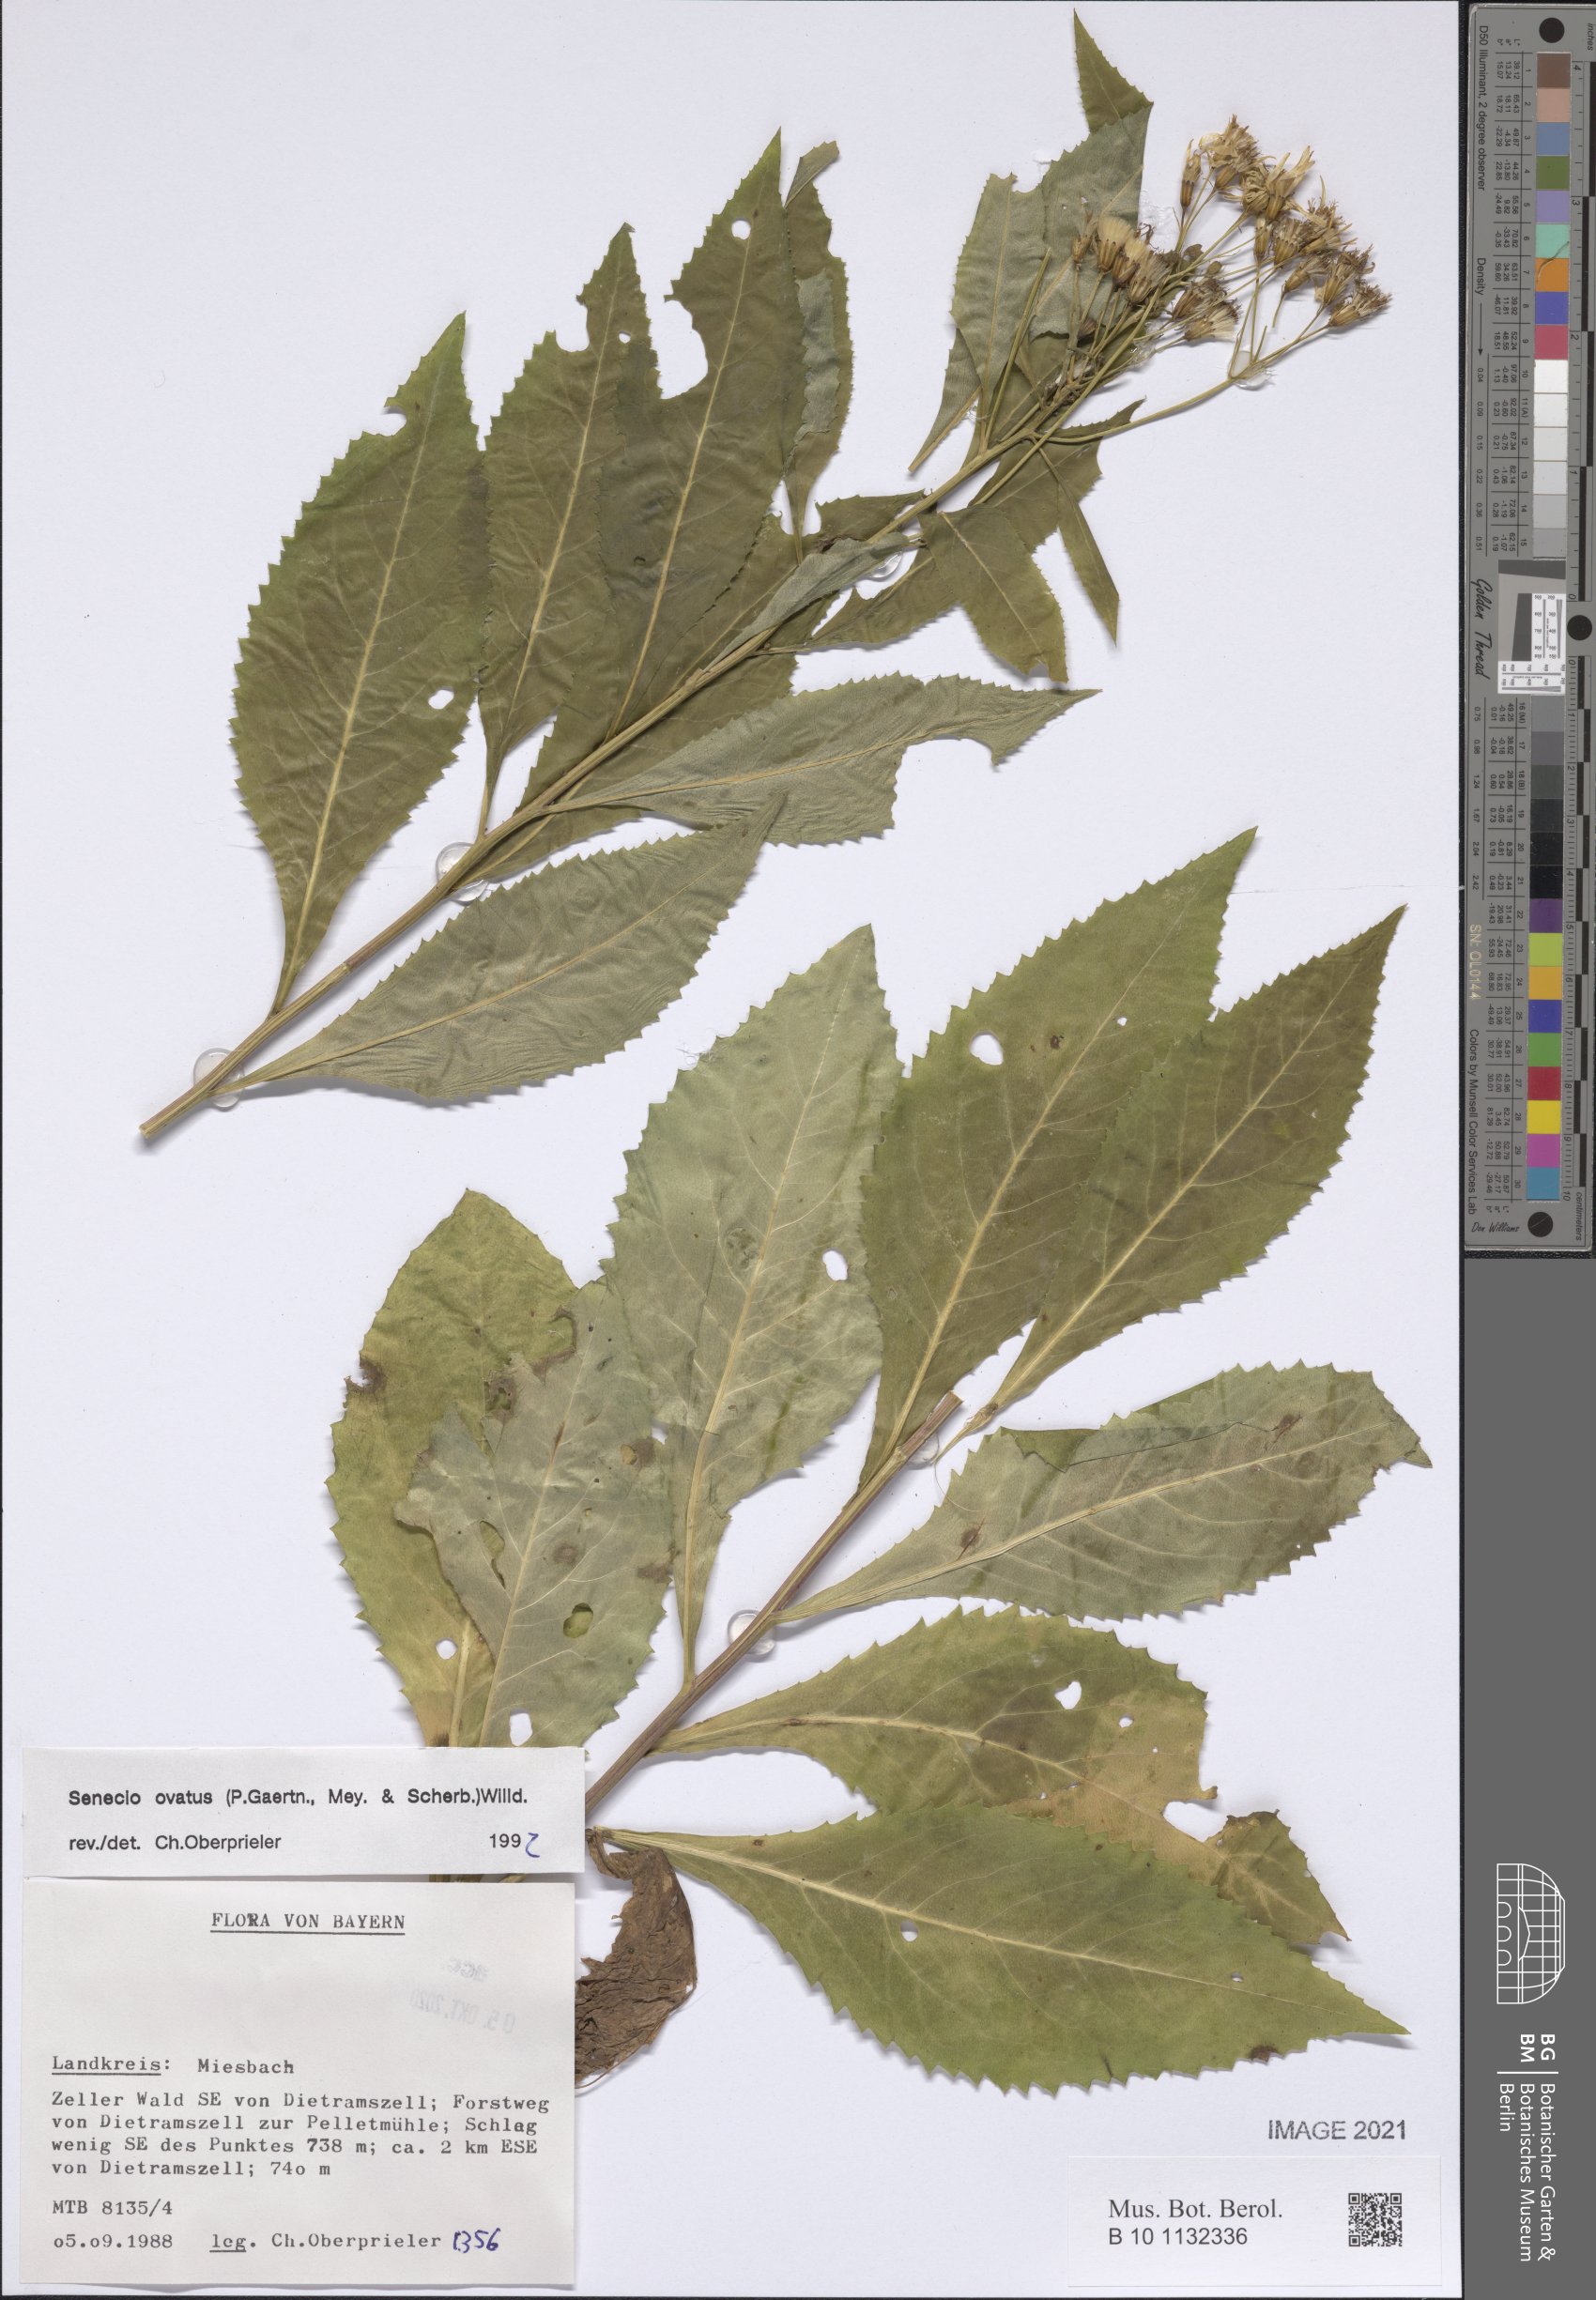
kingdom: Plantae
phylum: Tracheophyta
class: Magnoliopsida
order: Asterales
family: Asteraceae
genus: Senecio
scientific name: Senecio ovatus
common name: Wood ragwort
